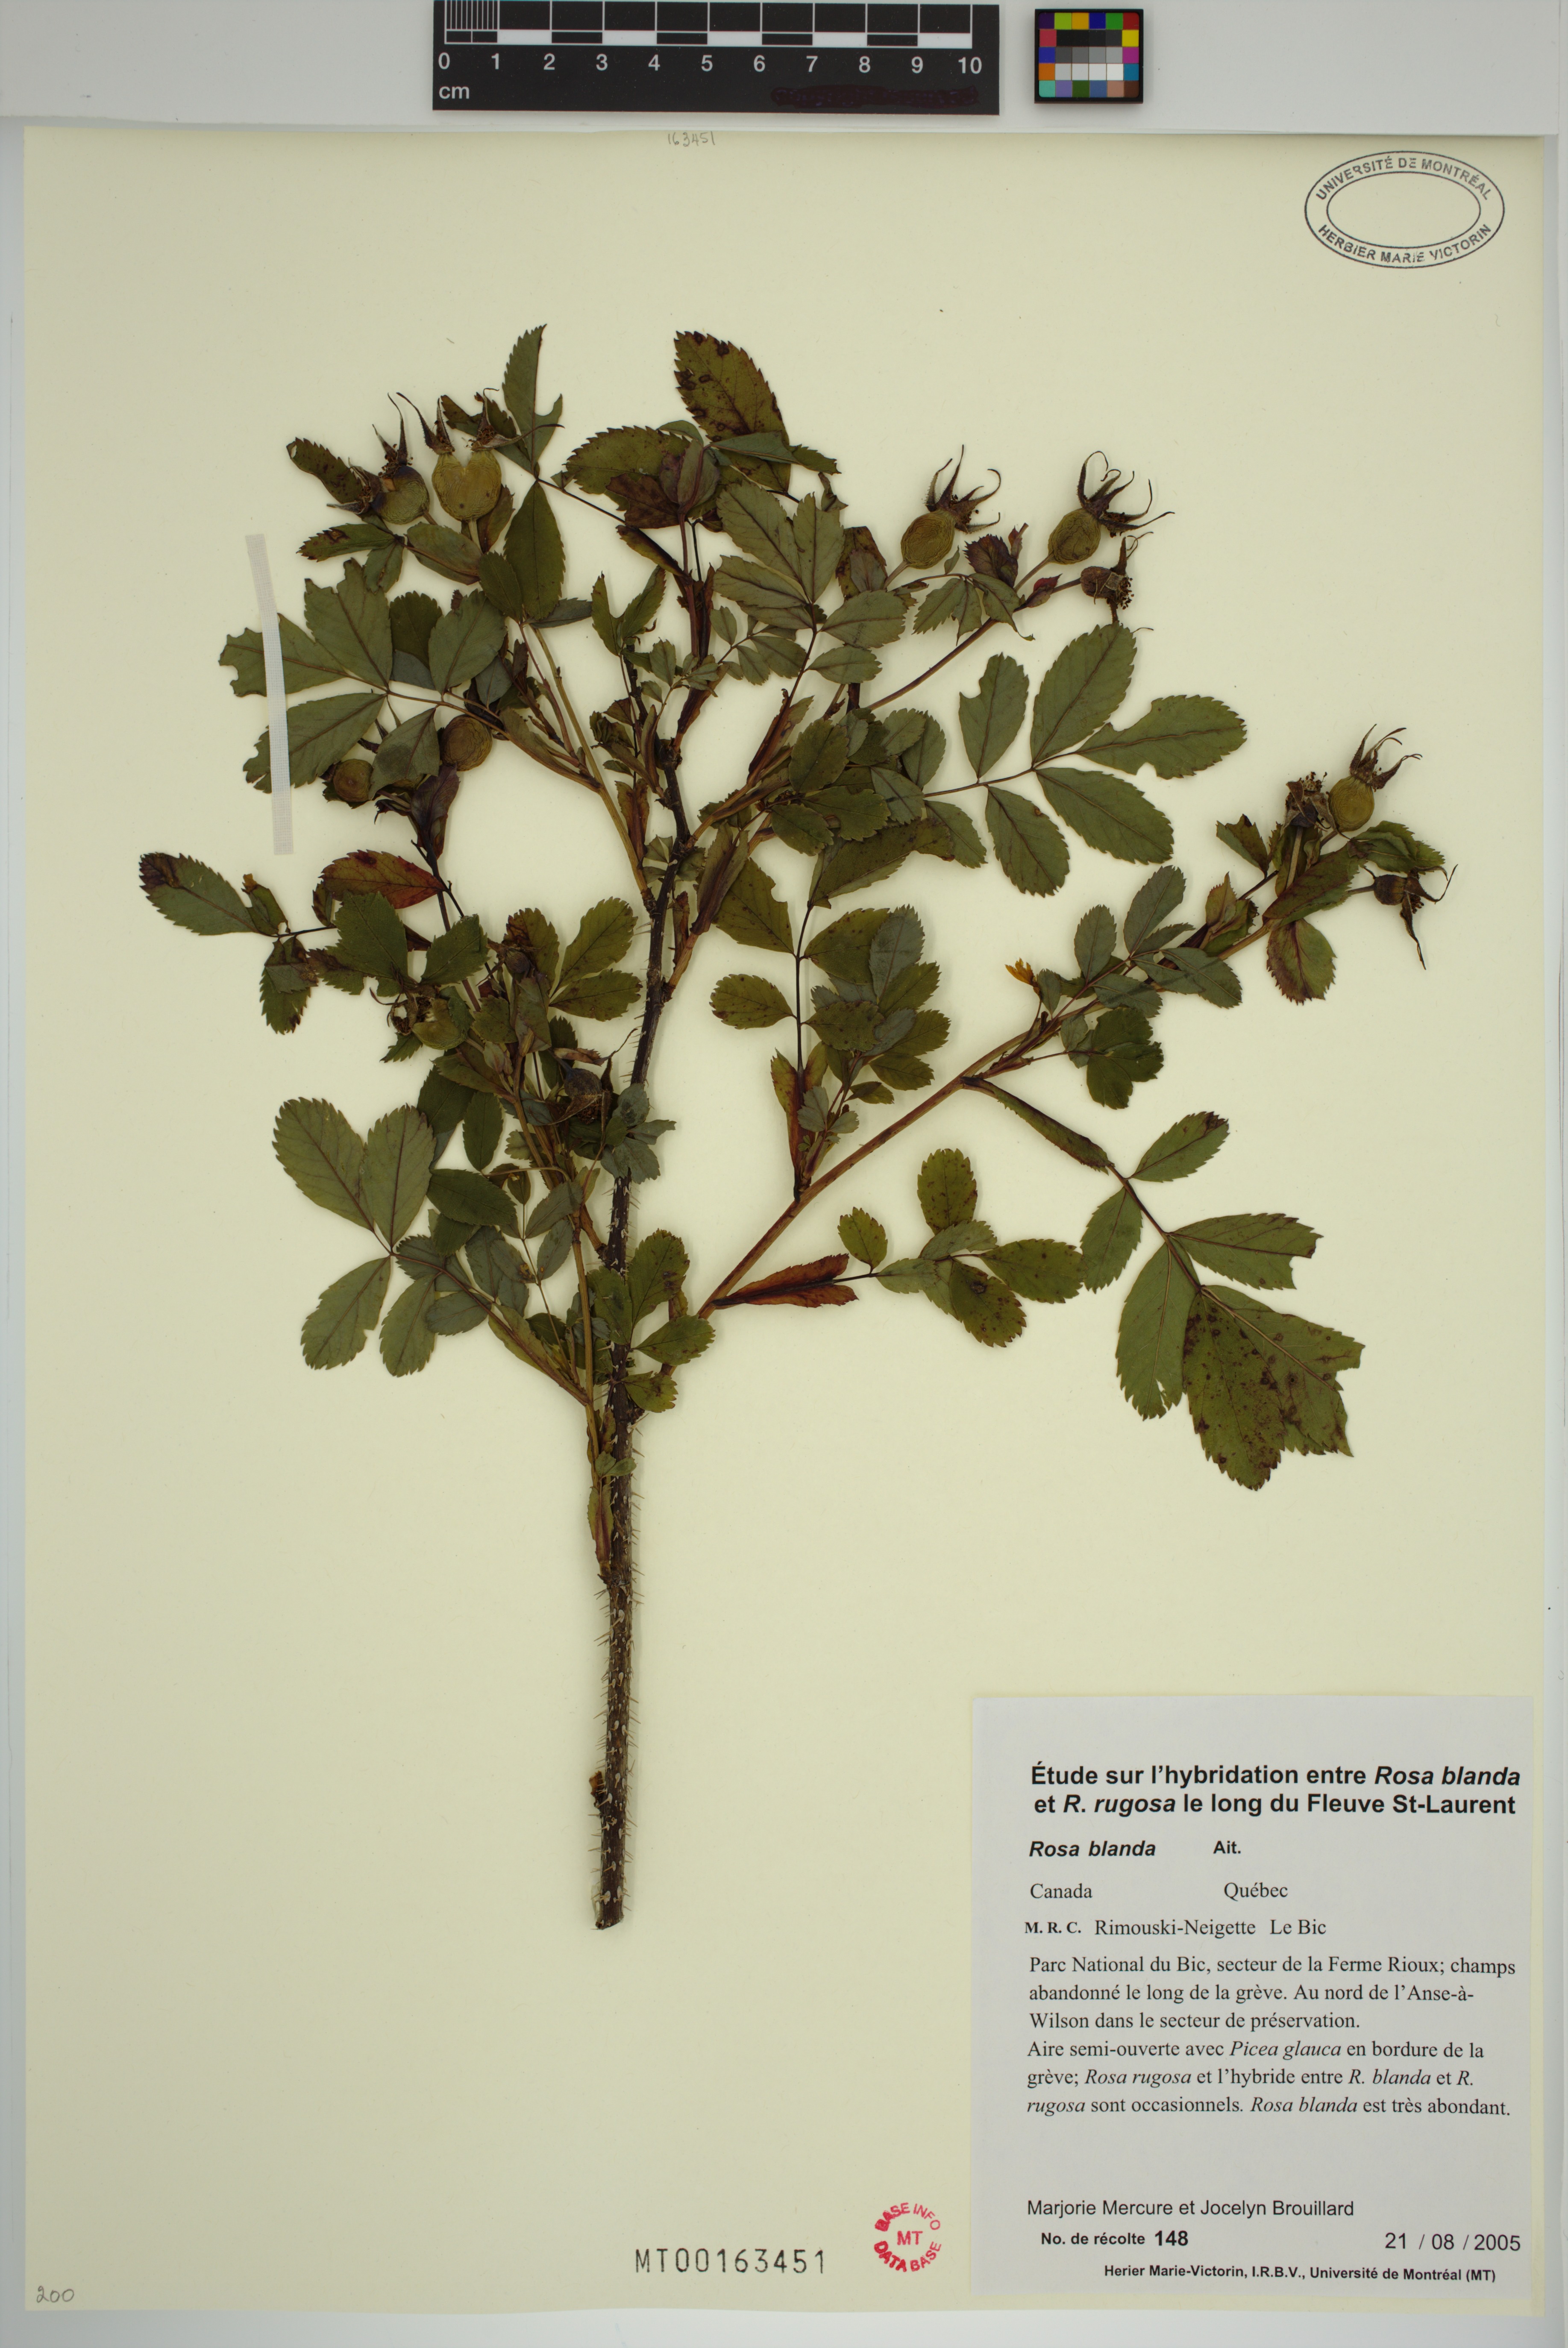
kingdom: Plantae
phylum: Tracheophyta
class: Magnoliopsida
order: Rosales
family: Rosaceae
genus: Rosa
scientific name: Rosa blanda
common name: Smooth rose
